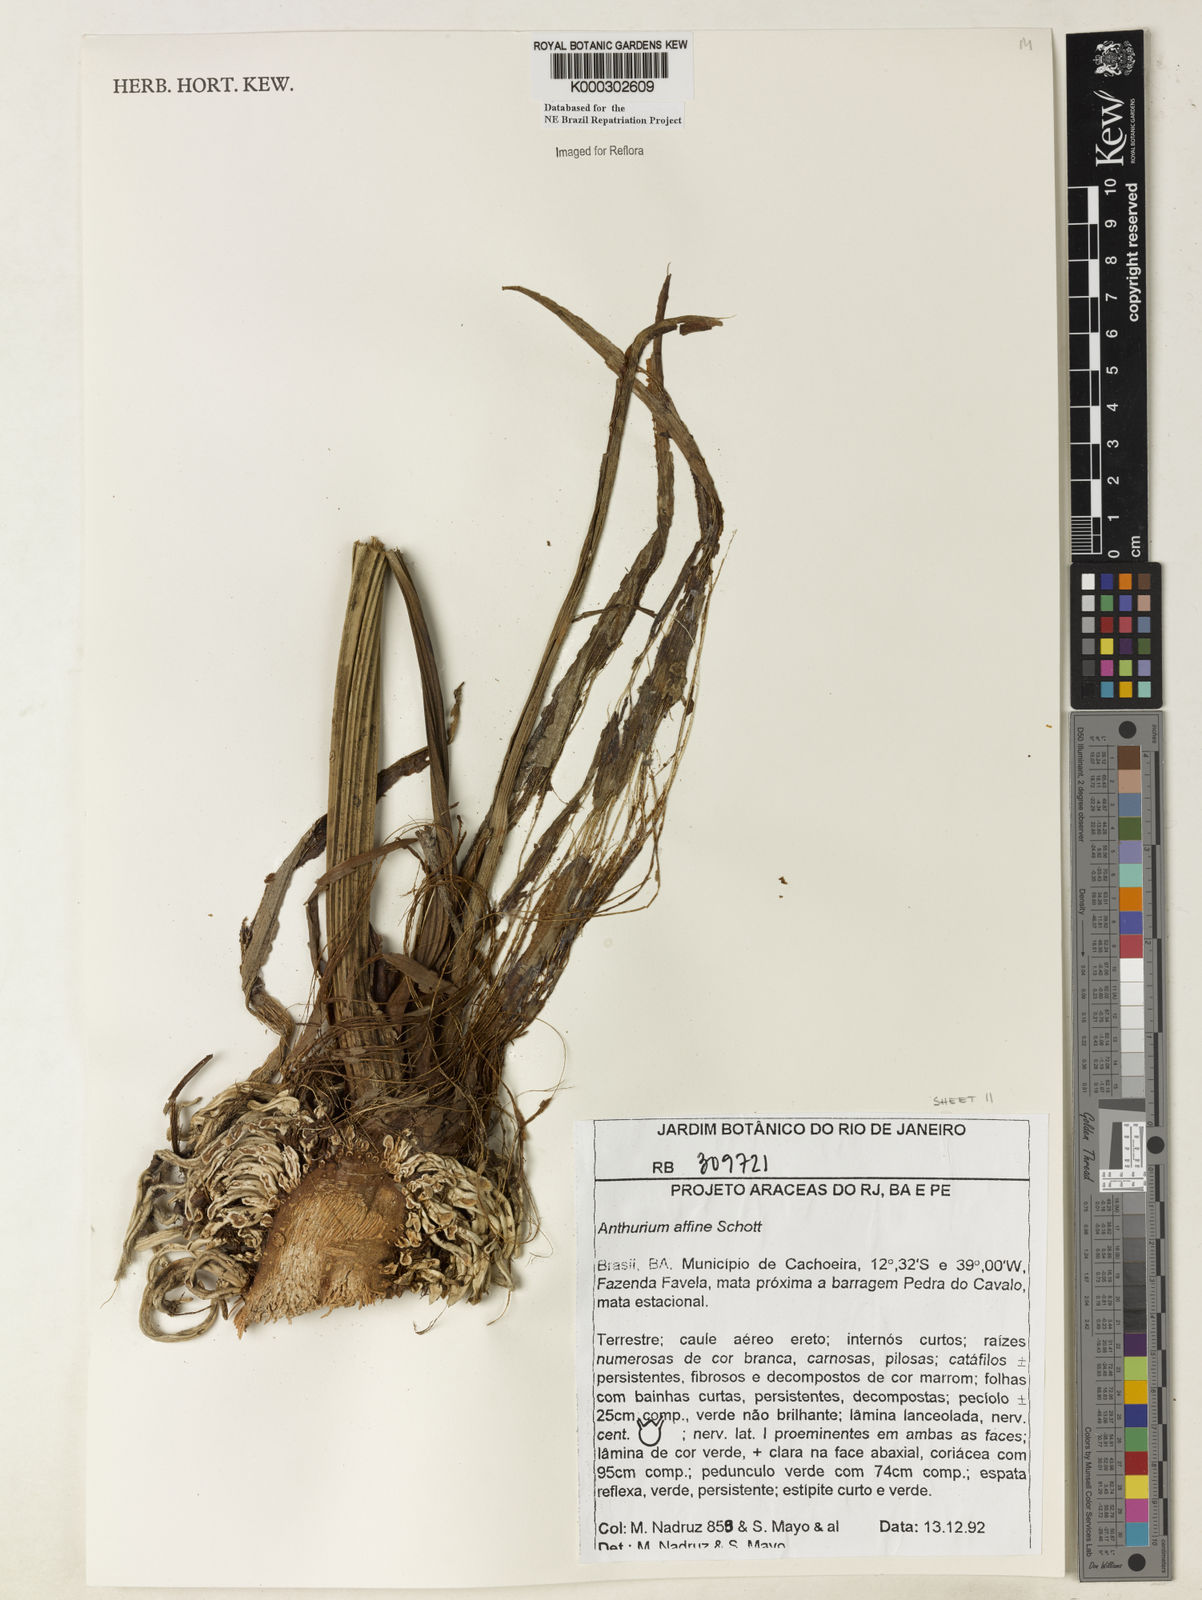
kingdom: Plantae
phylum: Tracheophyta
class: Liliopsida
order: Alismatales
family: Araceae
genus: Anthurium
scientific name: Anthurium affine
